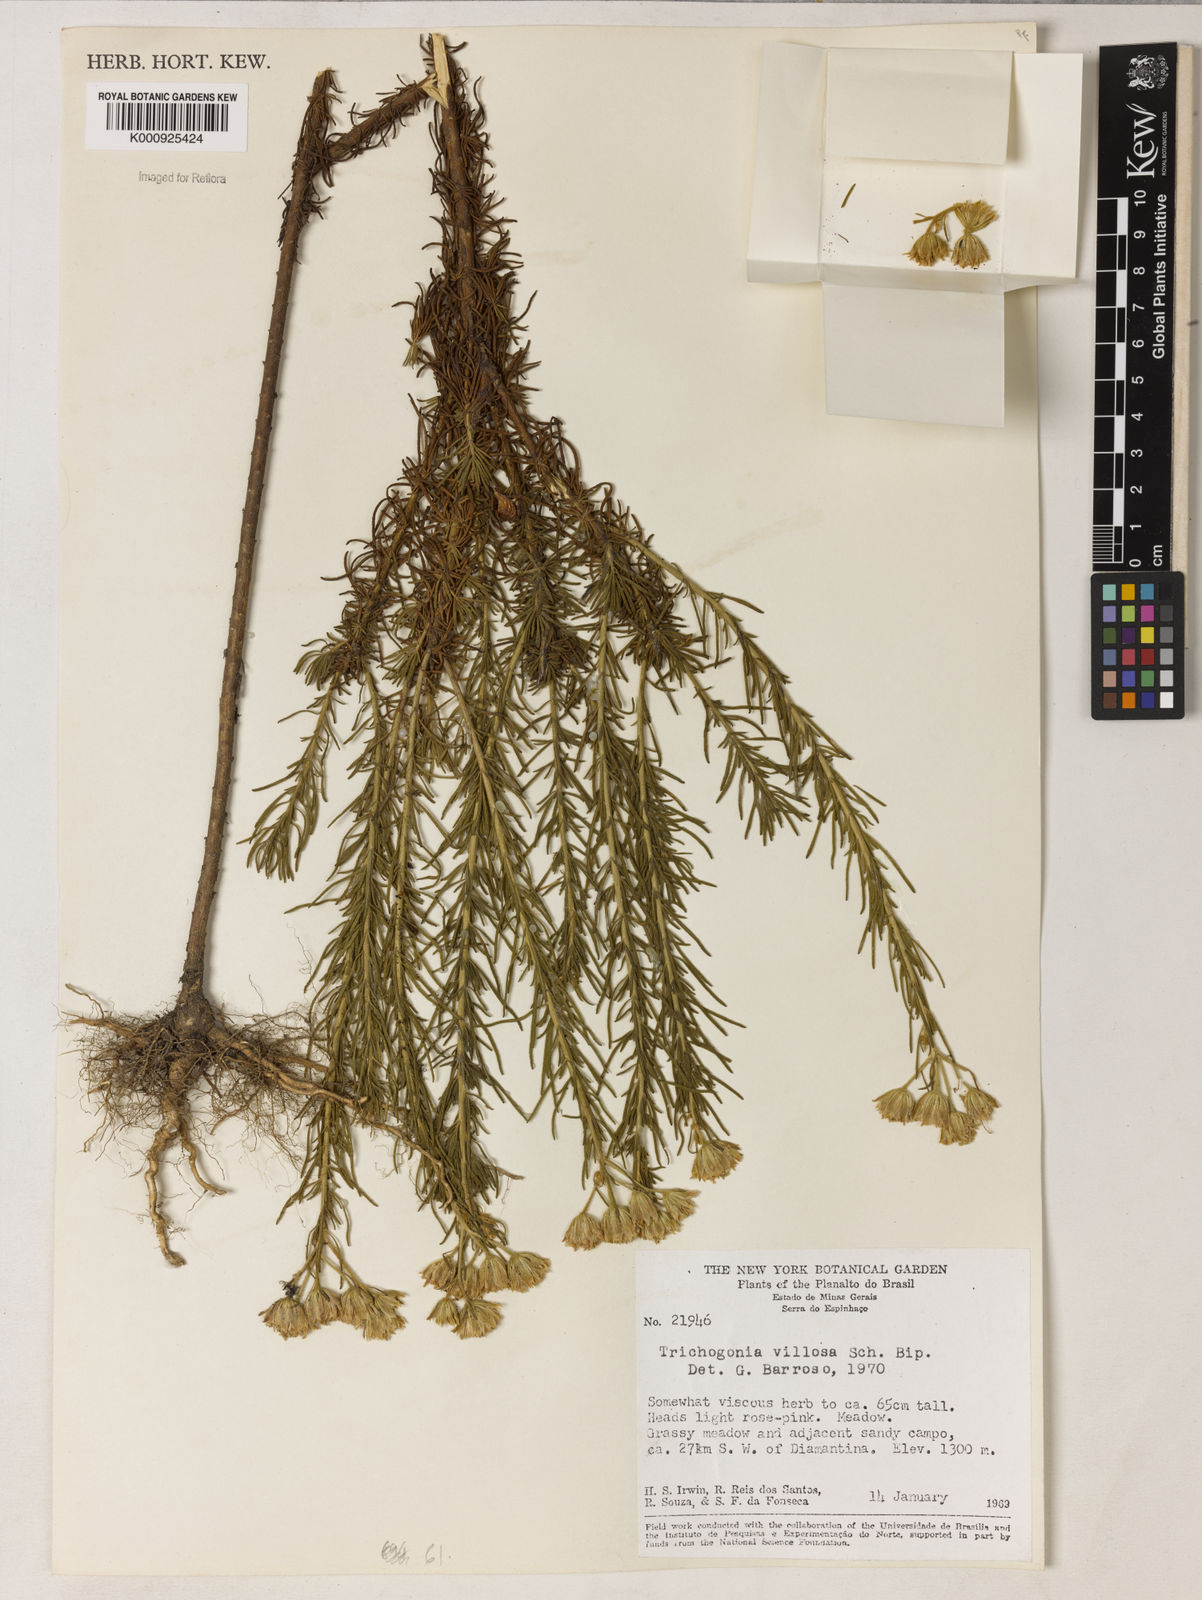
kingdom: Plantae
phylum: Tracheophyta
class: Magnoliopsida
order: Asterales
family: Asteraceae
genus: Trichogonia
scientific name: Trichogonia villosa
